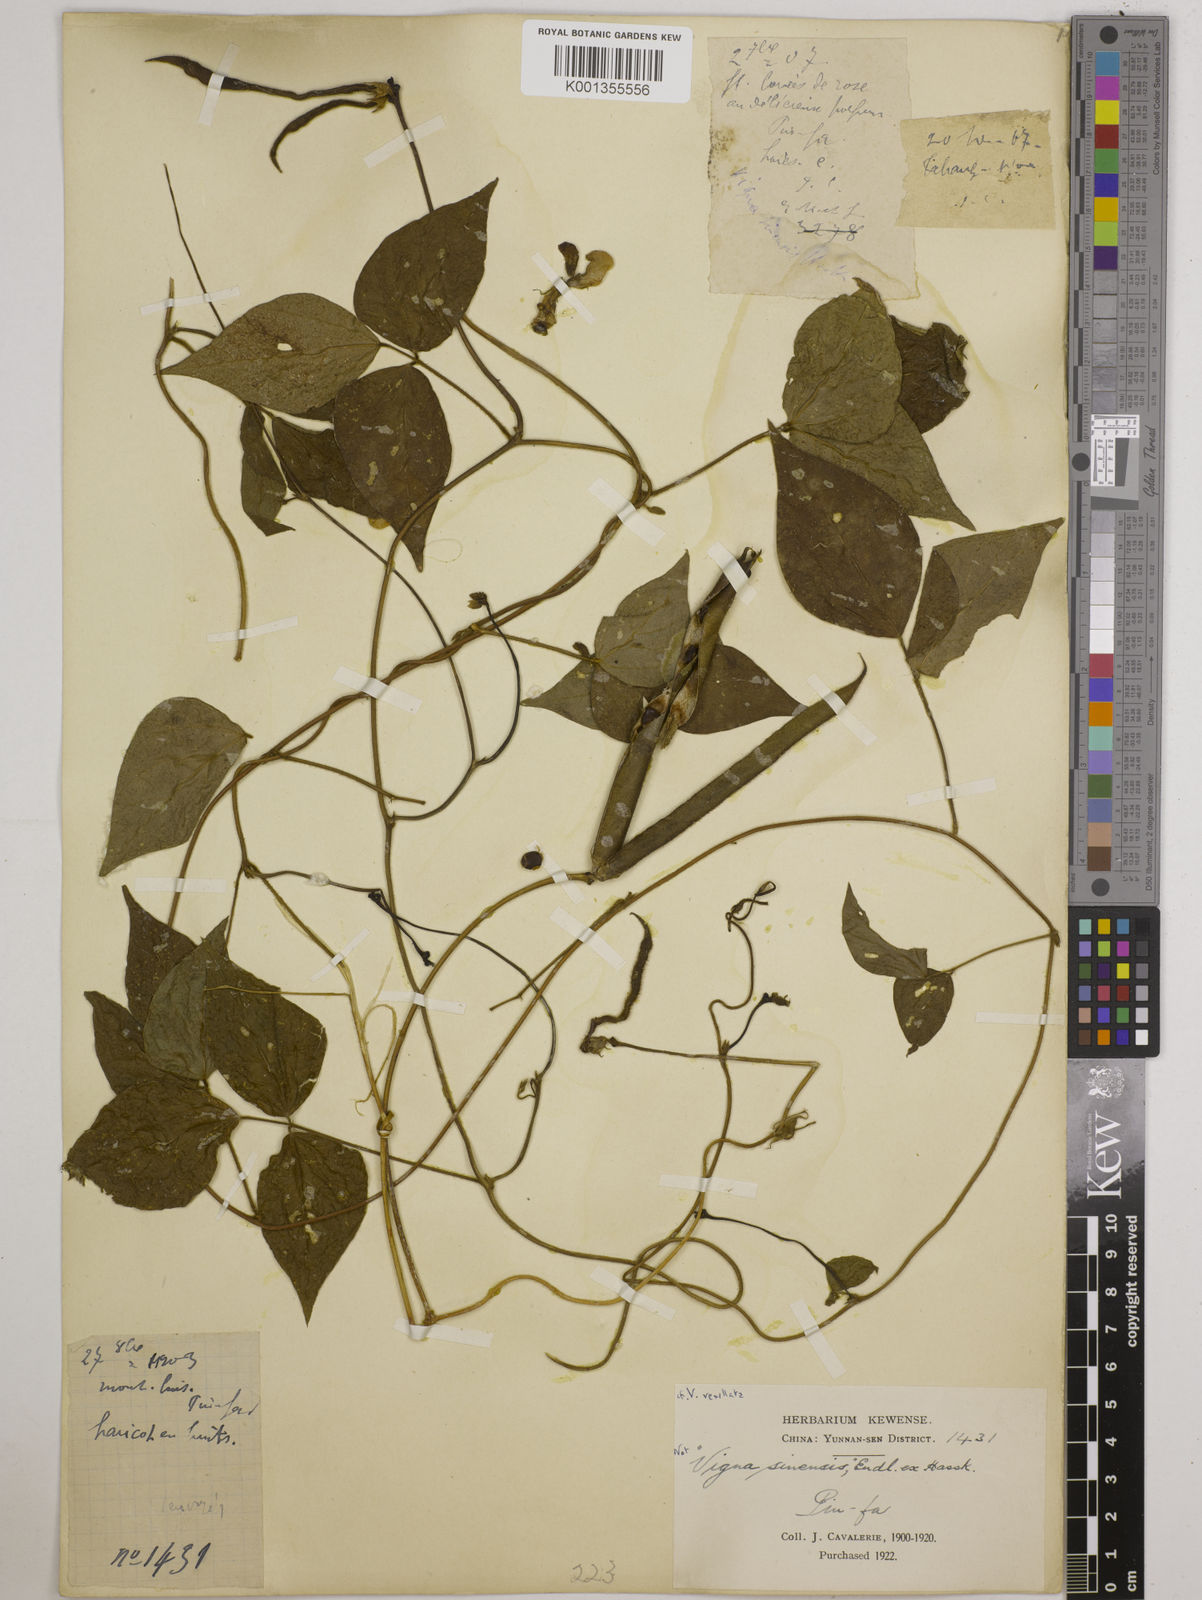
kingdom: Plantae
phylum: Tracheophyta
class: Magnoliopsida
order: Fabales
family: Fabaceae
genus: Vigna
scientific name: Vigna vexillata
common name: Zombi pea
